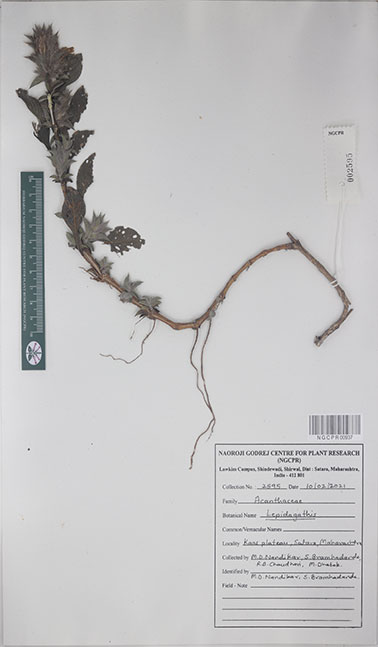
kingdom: Plantae
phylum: Tracheophyta
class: Magnoliopsida
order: Lamiales
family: Acanthaceae
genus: Lepidagathis
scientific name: Lepidagathis
